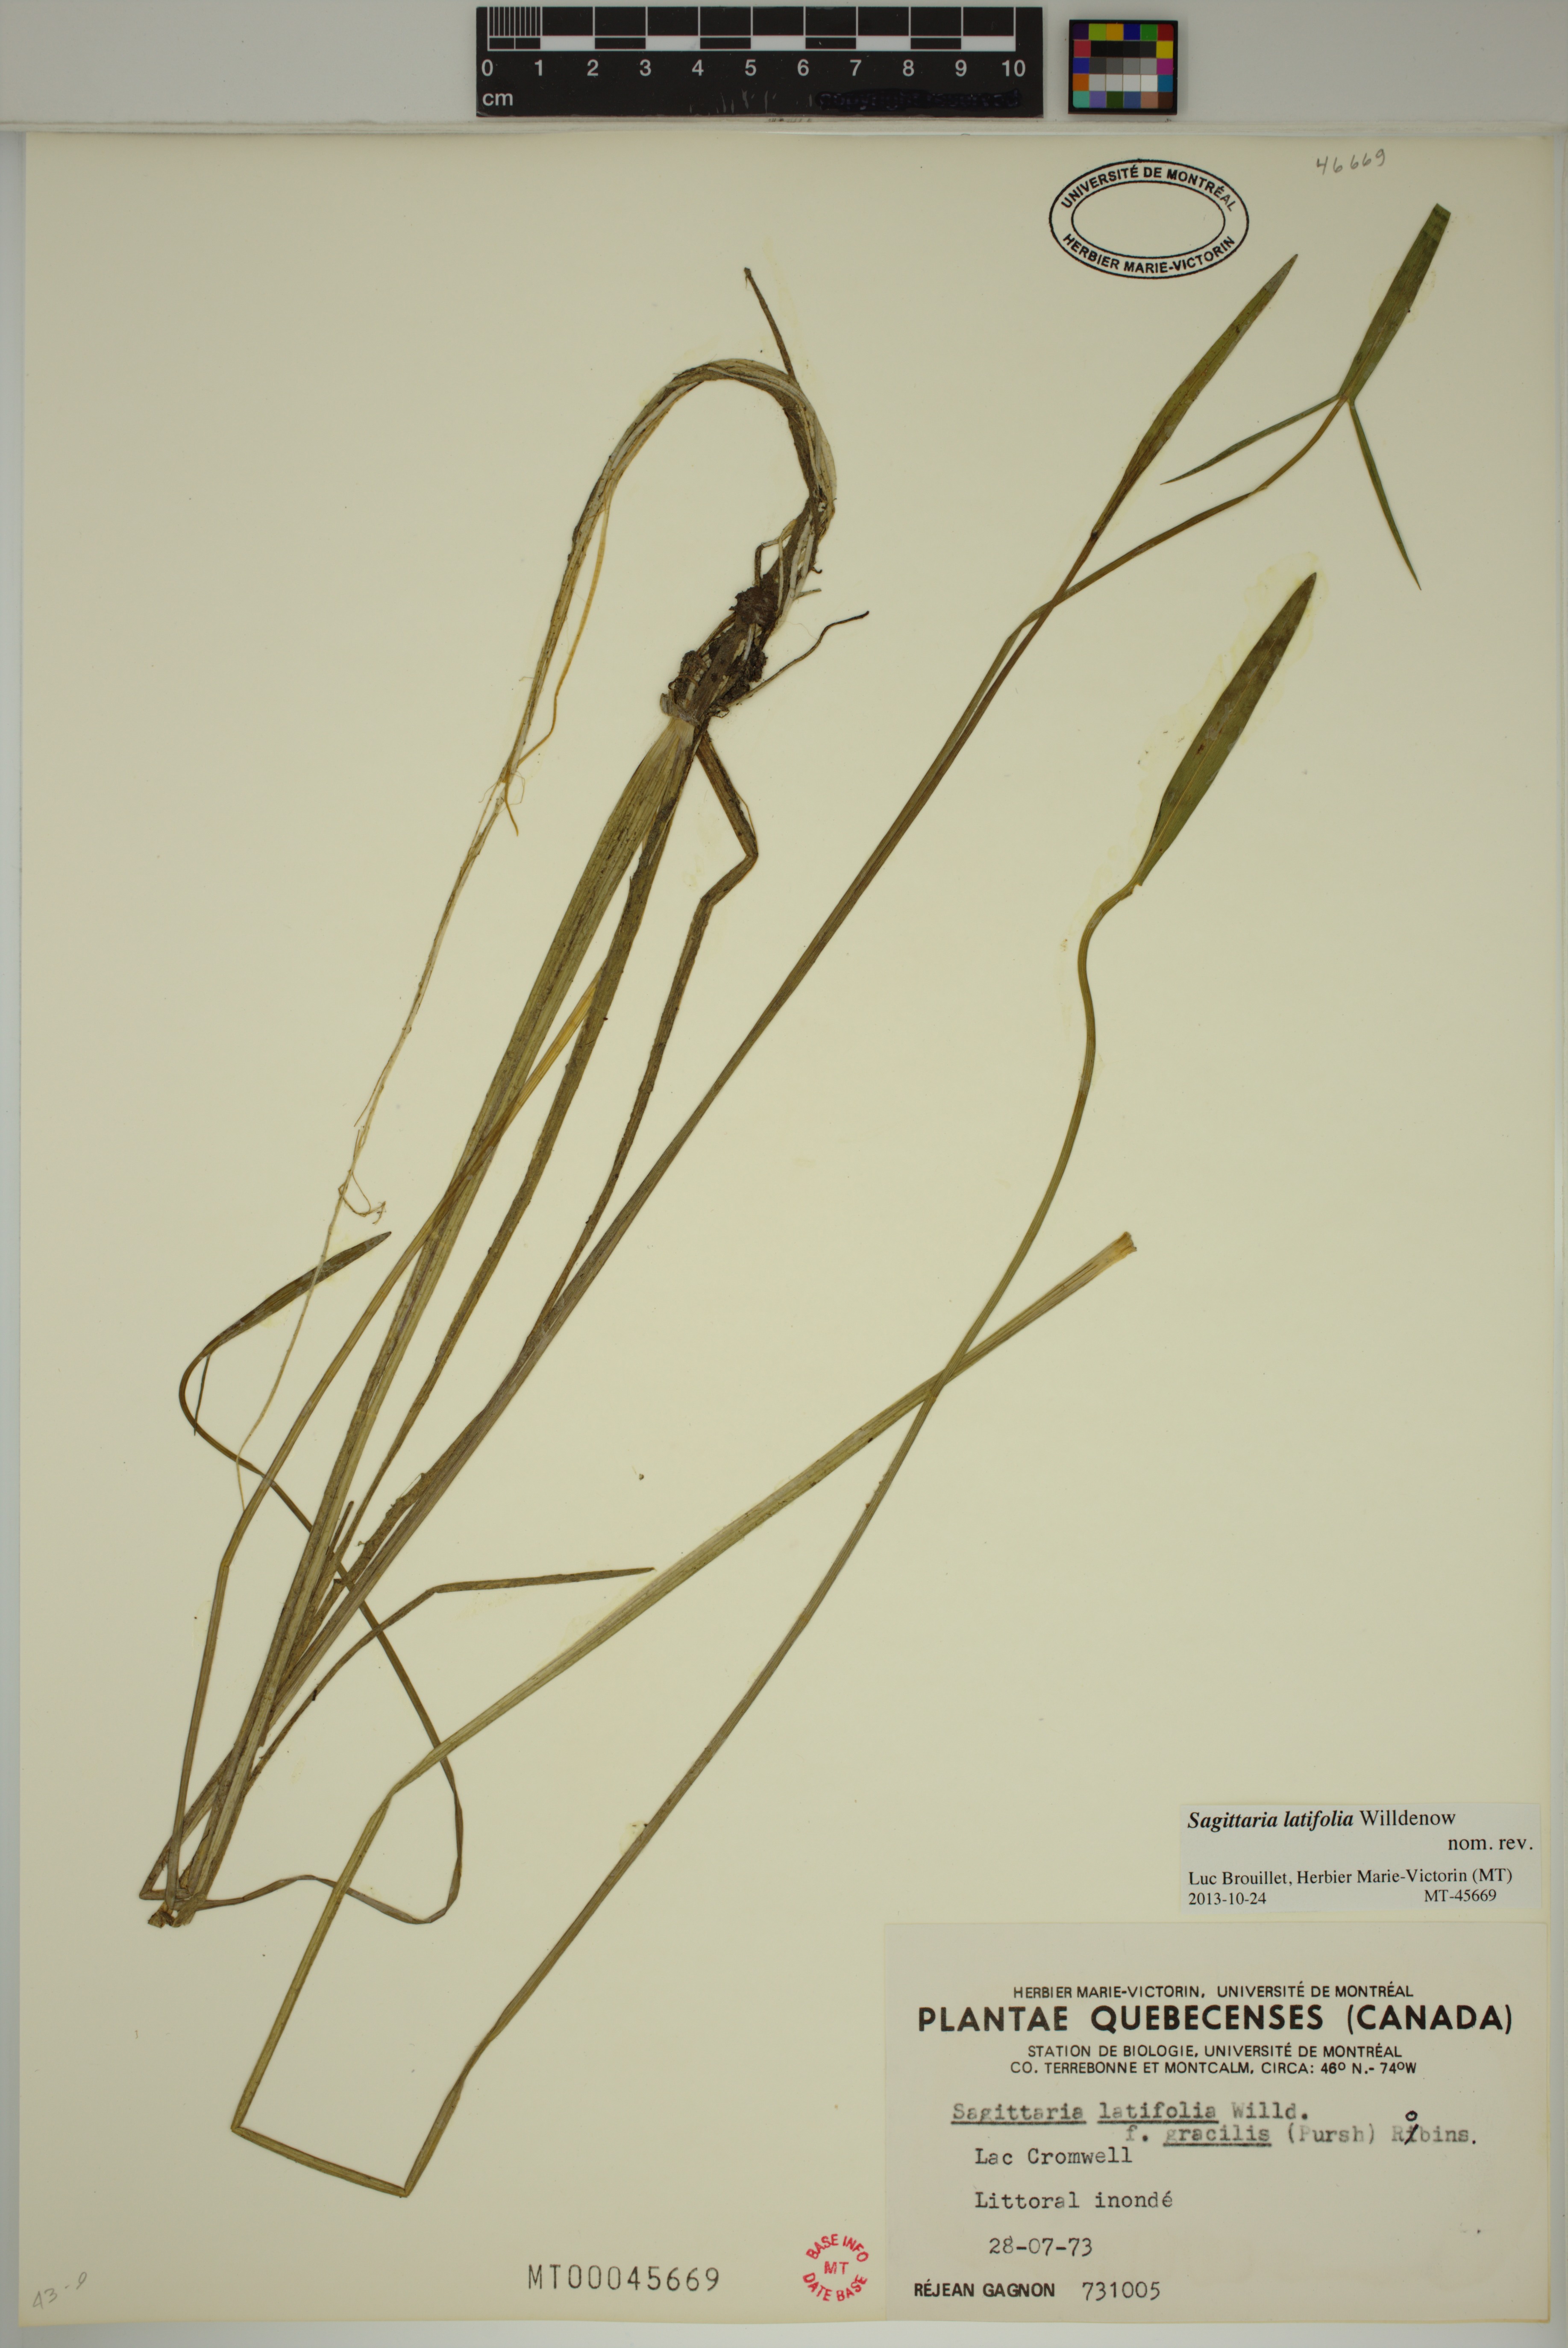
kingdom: Plantae
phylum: Tracheophyta
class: Liliopsida
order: Alismatales
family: Alismataceae
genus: Sagittaria
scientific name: Sagittaria latifolia
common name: Duck-potato
